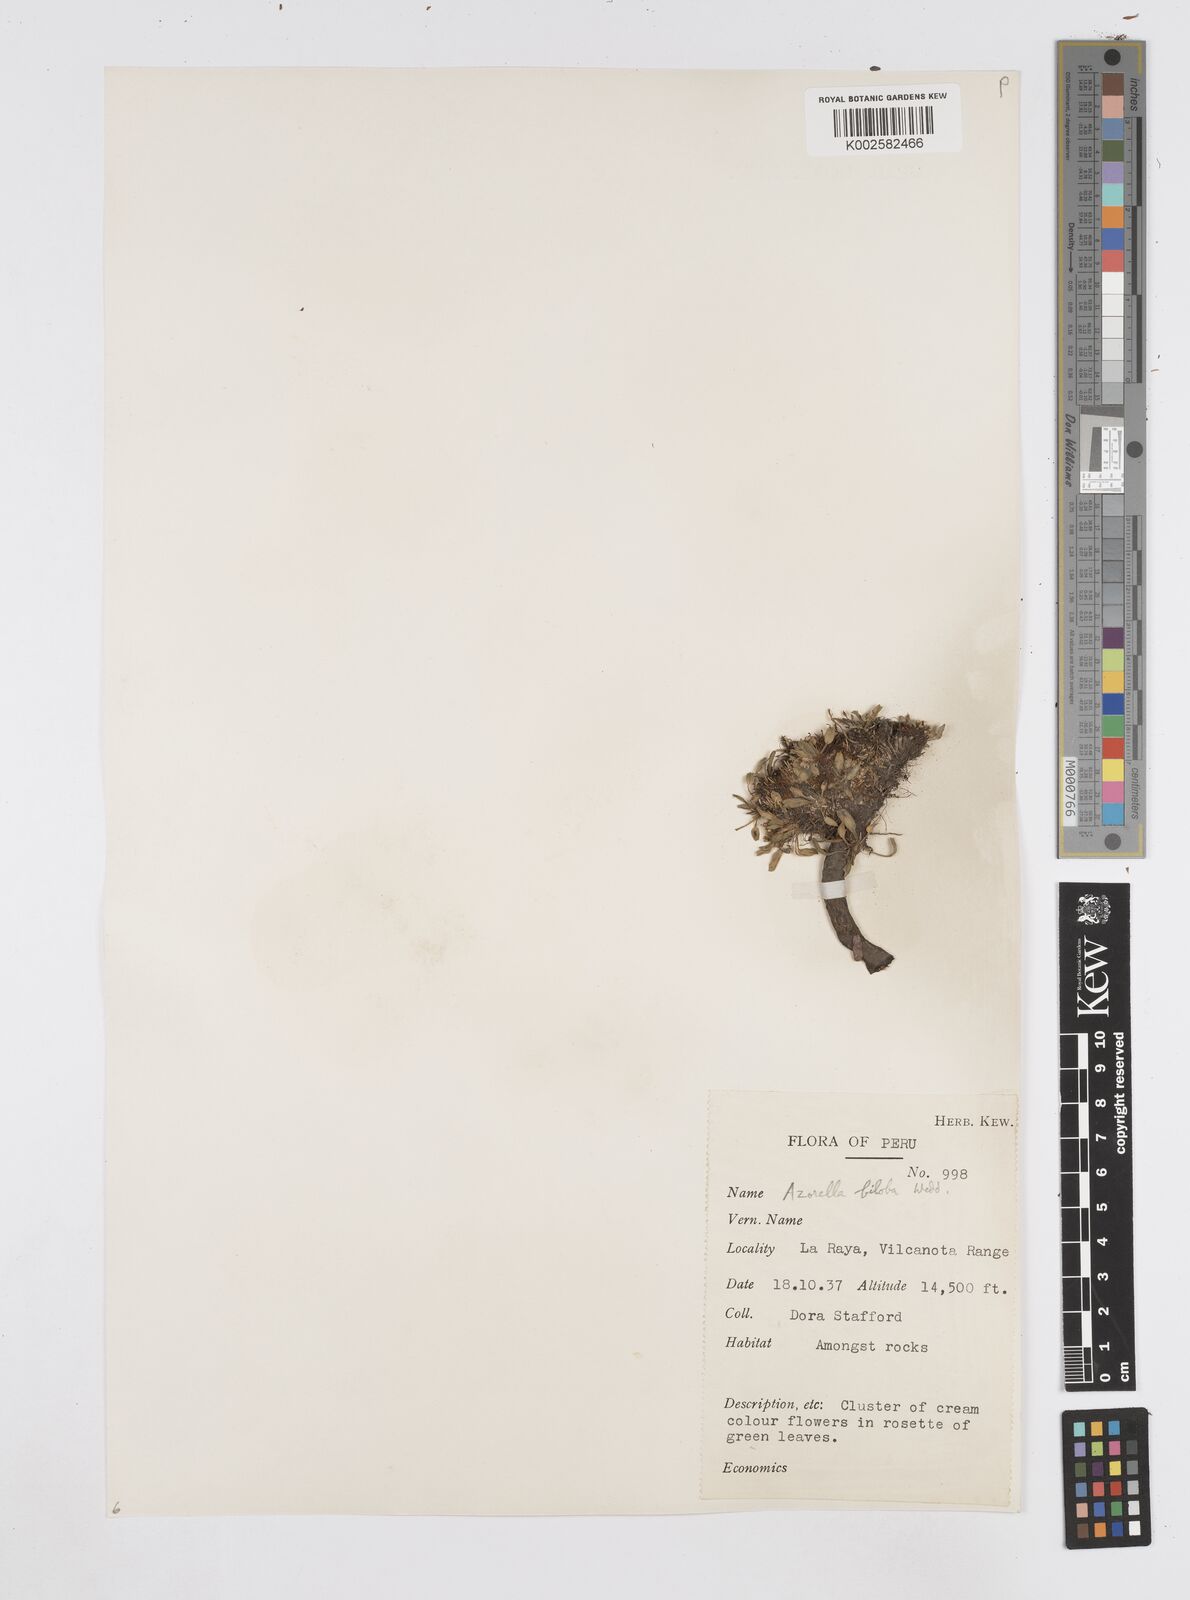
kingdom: Plantae
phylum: Tracheophyta
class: Magnoliopsida
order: Apiales
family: Apiaceae
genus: Azorella
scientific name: Azorella biloba
